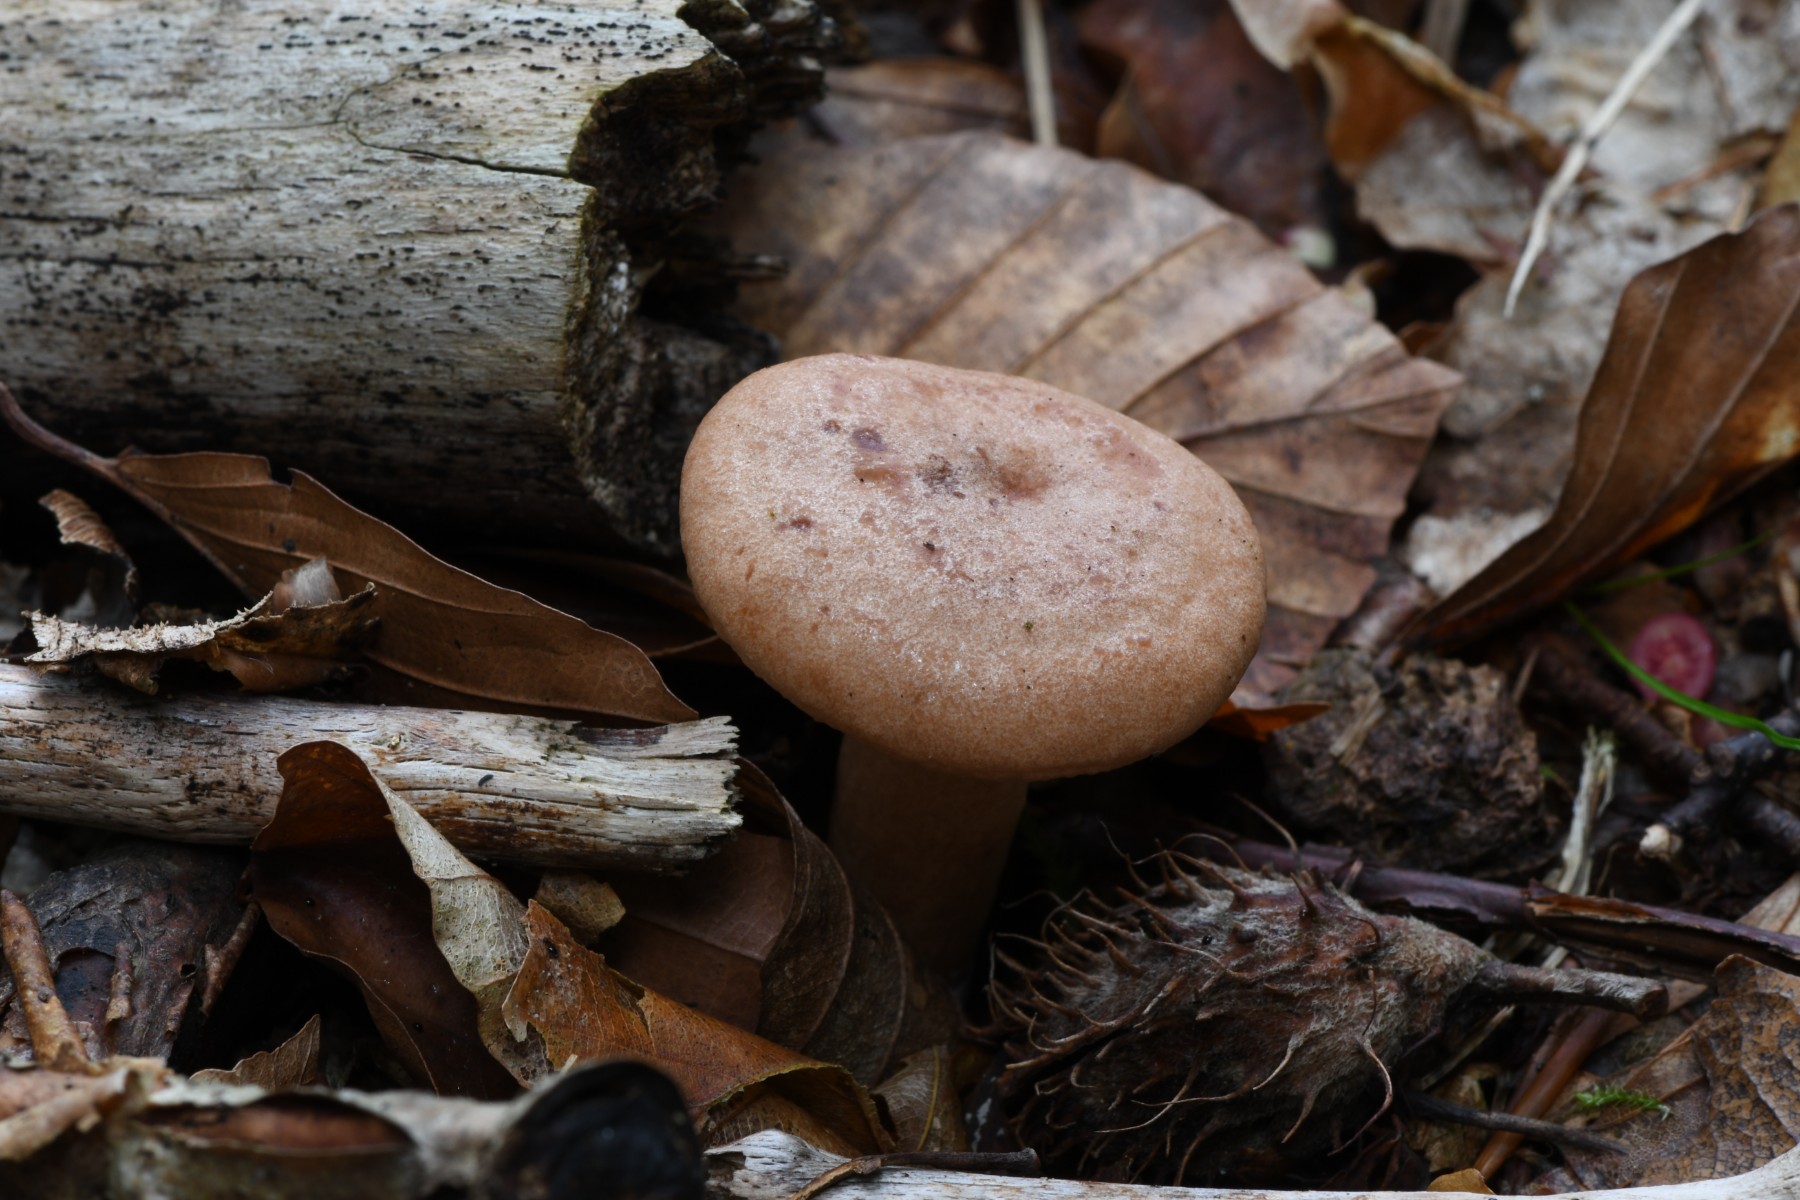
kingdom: Fungi
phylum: Basidiomycota
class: Agaricomycetes
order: Russulales
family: Russulaceae
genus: Lactarius
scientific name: Lactarius subdulcis
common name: sødlig mælkehat
